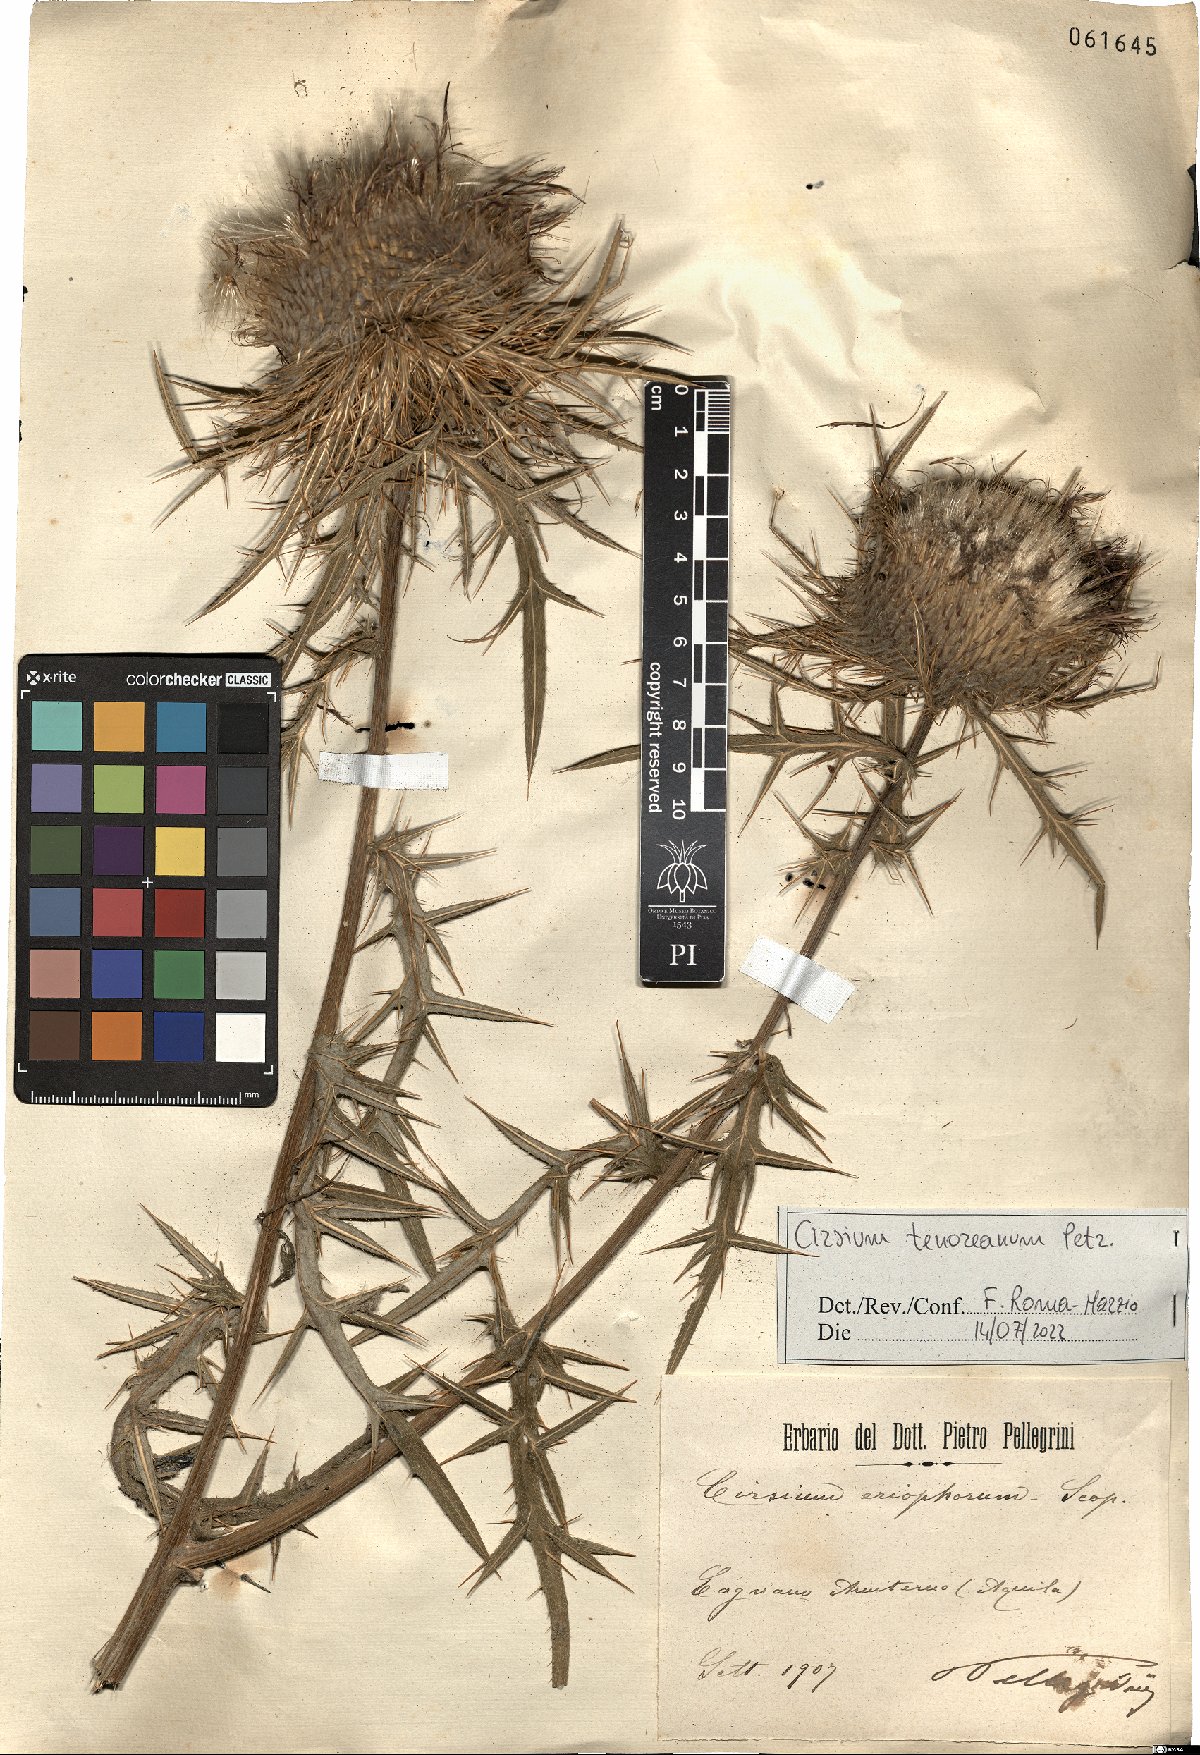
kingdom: Plantae
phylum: Tracheophyta
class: Magnoliopsida
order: Asterales
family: Asteraceae
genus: Lophiolepis
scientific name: Lophiolepis tenoreana
